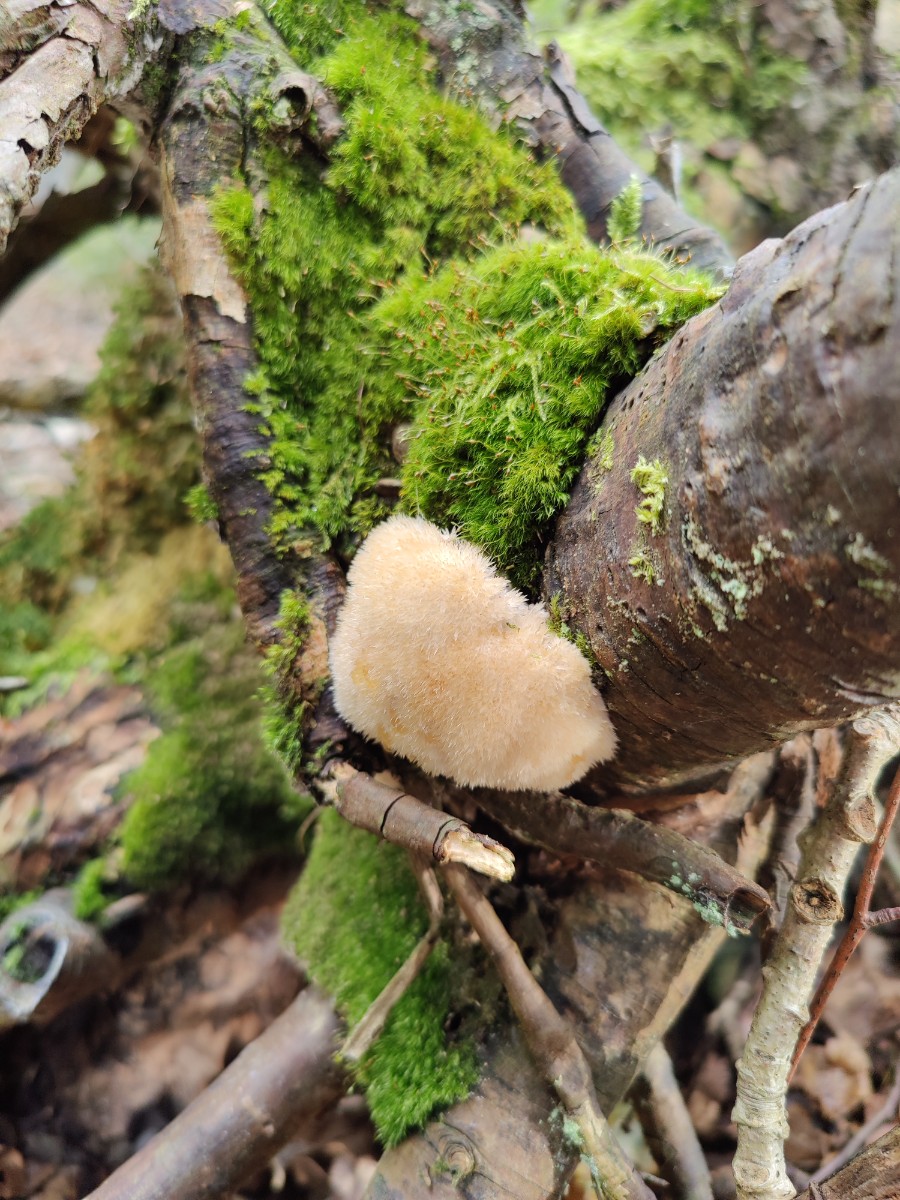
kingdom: Fungi
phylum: Basidiomycota
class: Agaricomycetes
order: Polyporales
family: Dacryobolaceae
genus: Postia
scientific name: Postia ptychogaster
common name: støvende kødporesvamp
